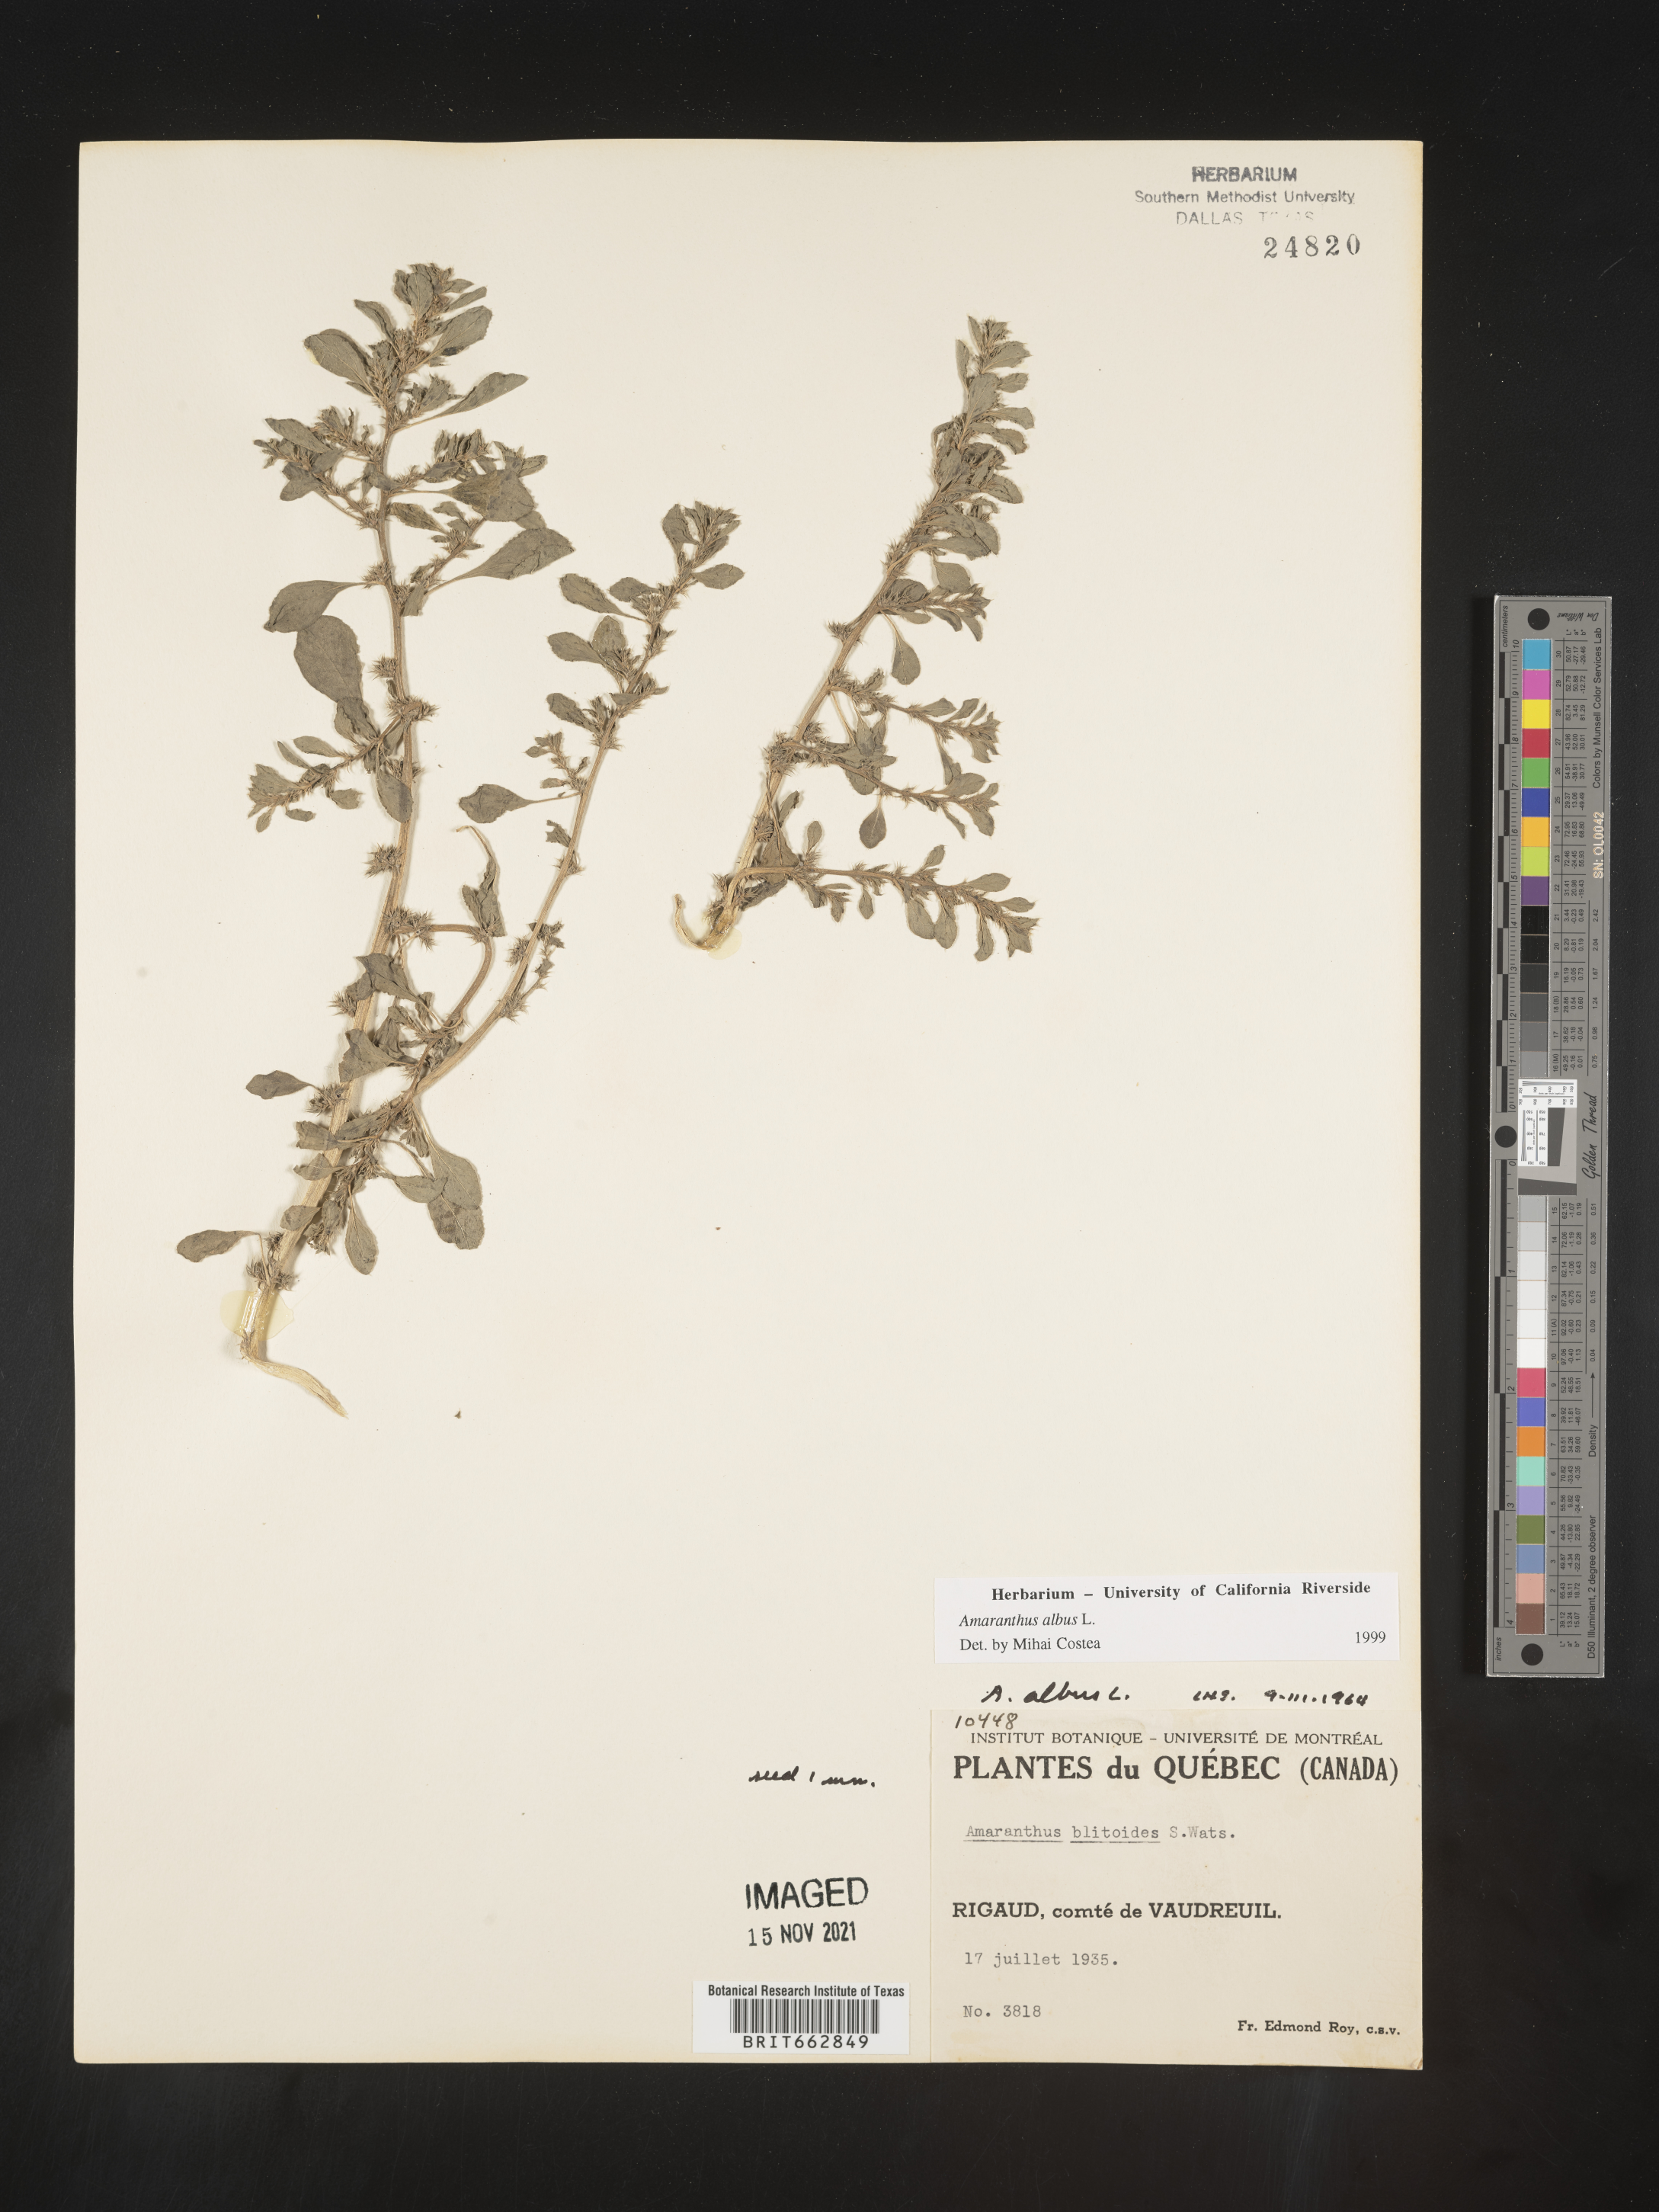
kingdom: Plantae
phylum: Tracheophyta
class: Magnoliopsida
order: Caryophyllales
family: Amaranthaceae
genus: Amaranthus
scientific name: Amaranthus albus
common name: White pigweed
